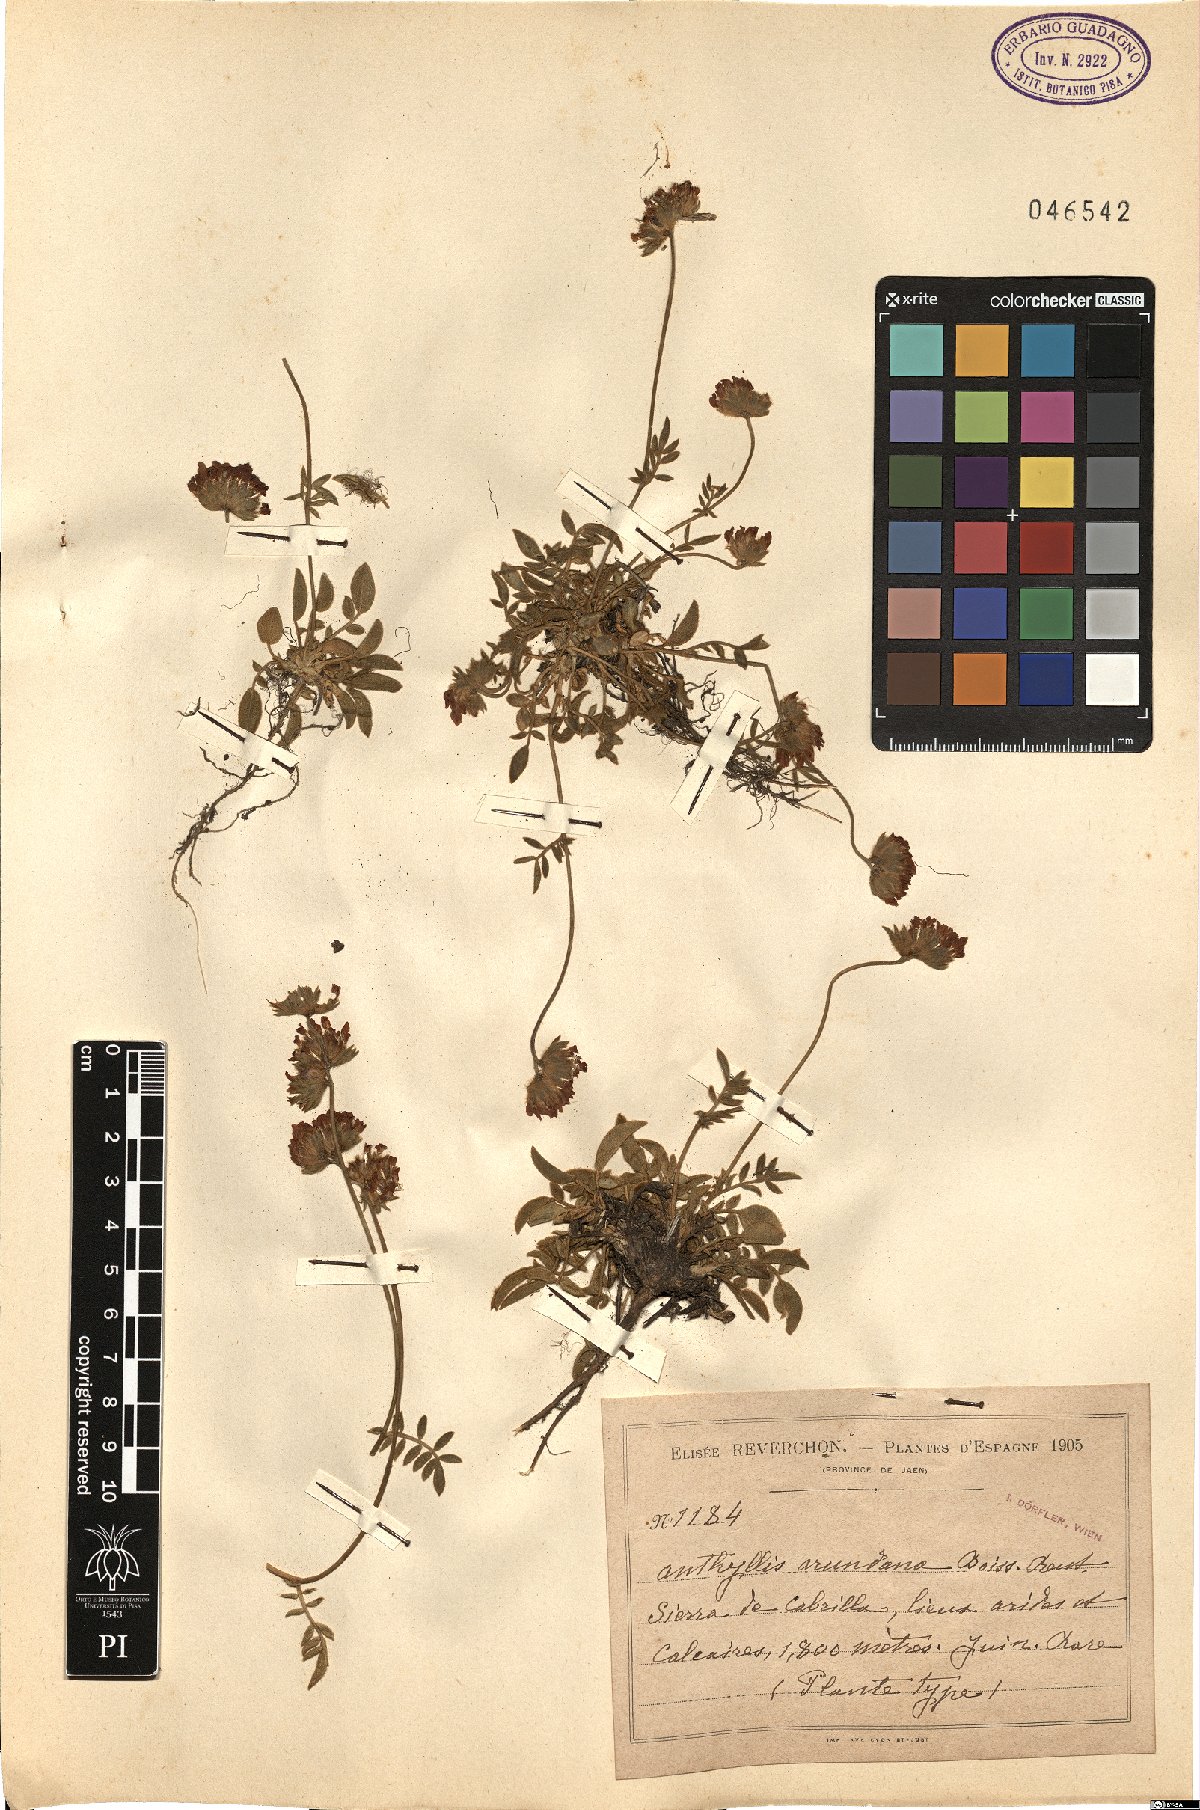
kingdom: Plantae
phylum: Tracheophyta
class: Magnoliopsida
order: Fabales
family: Fabaceae
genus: Anthyllis
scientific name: Anthyllis vulneraria
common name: Kidney vetch
